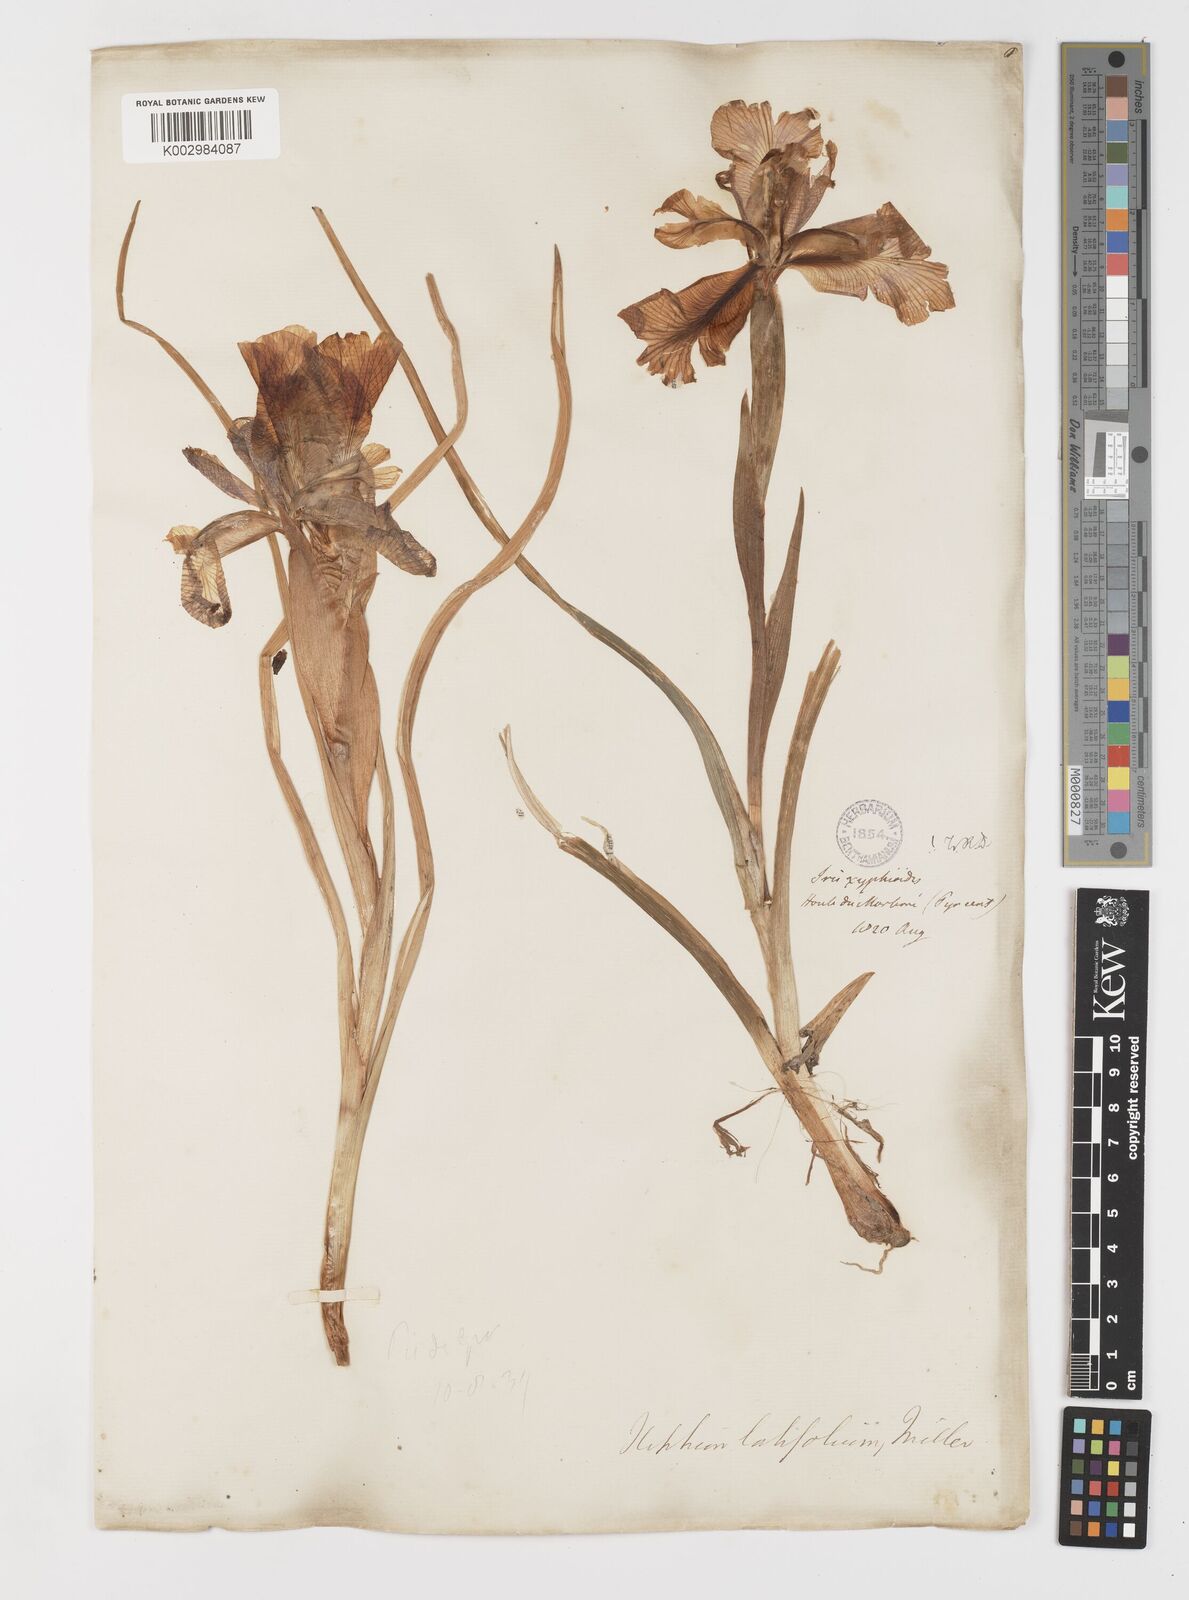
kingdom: Plantae
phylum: Tracheophyta
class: Liliopsida
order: Asparagales
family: Iridaceae
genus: Iris
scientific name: Iris jacquinii
